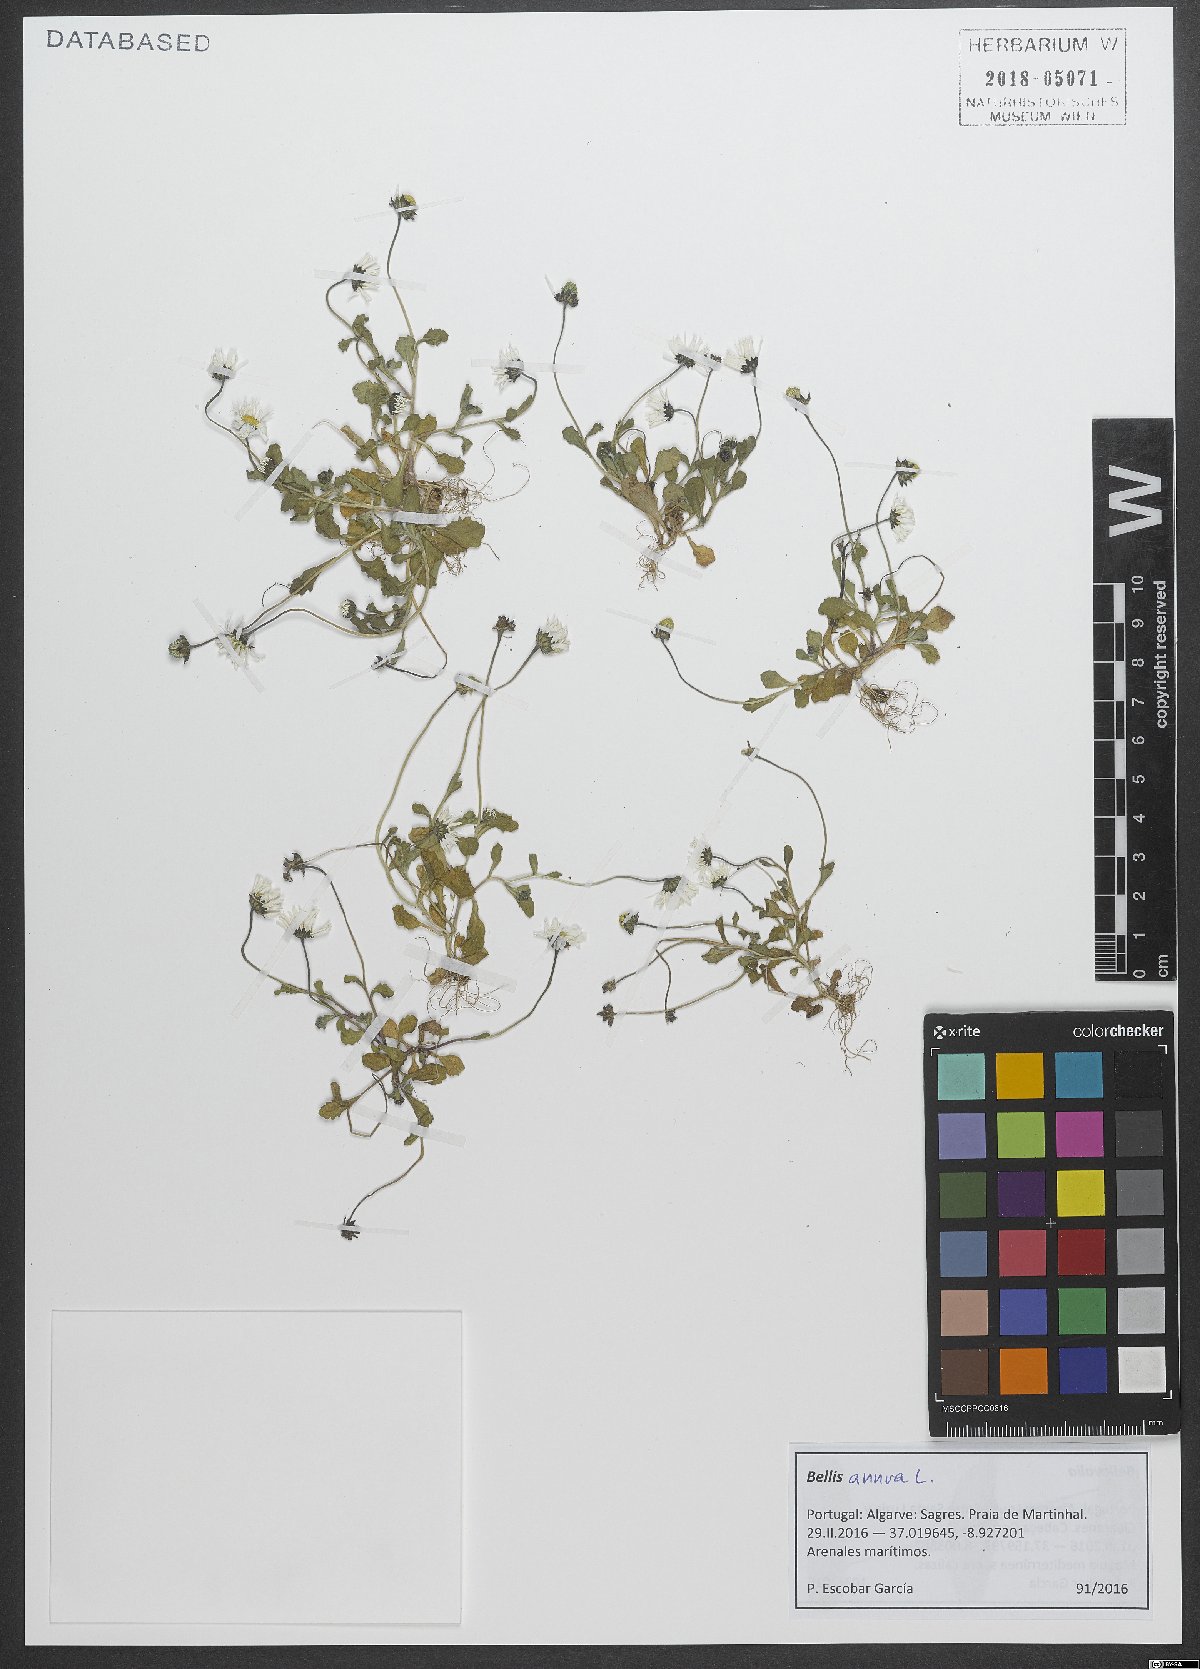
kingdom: Plantae
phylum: Tracheophyta
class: Magnoliopsida
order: Asterales
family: Asteraceae
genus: Bellis
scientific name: Bellis annua
